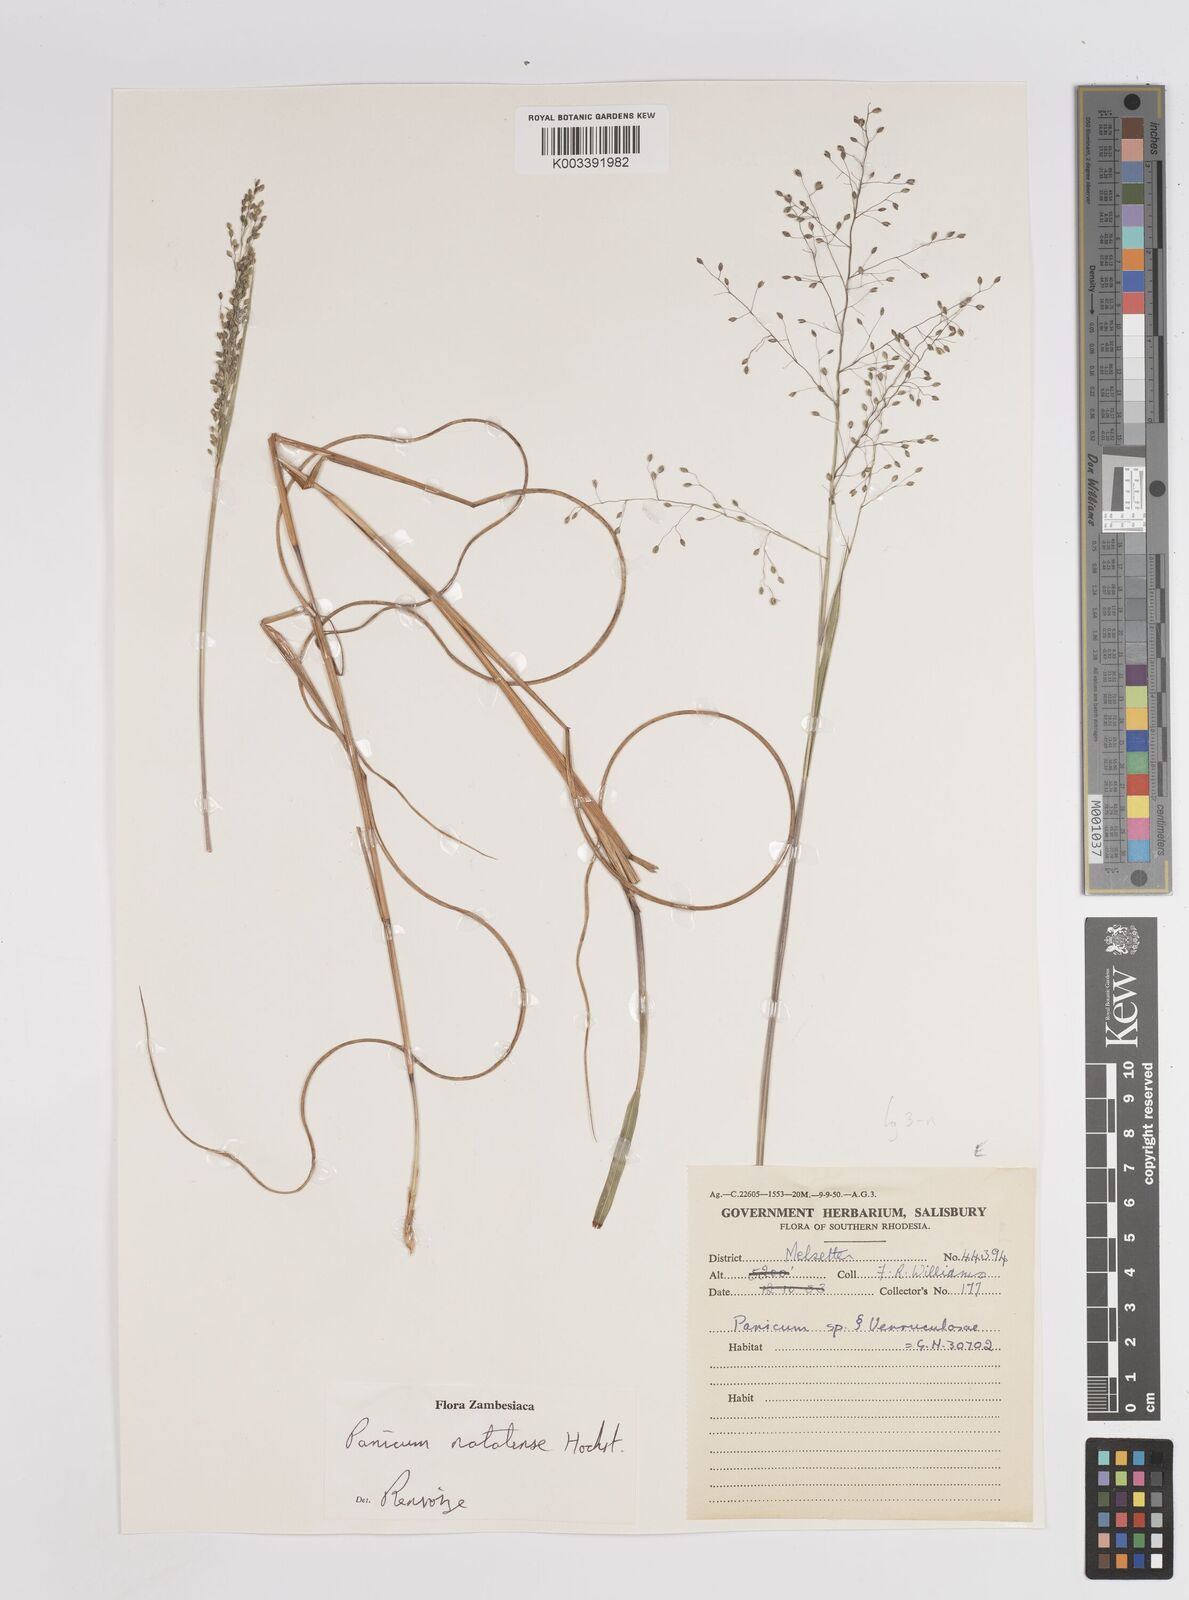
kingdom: Plantae
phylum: Tracheophyta
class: Liliopsida
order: Poales
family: Poaceae
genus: Trichanthecium
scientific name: Trichanthecium natalense
